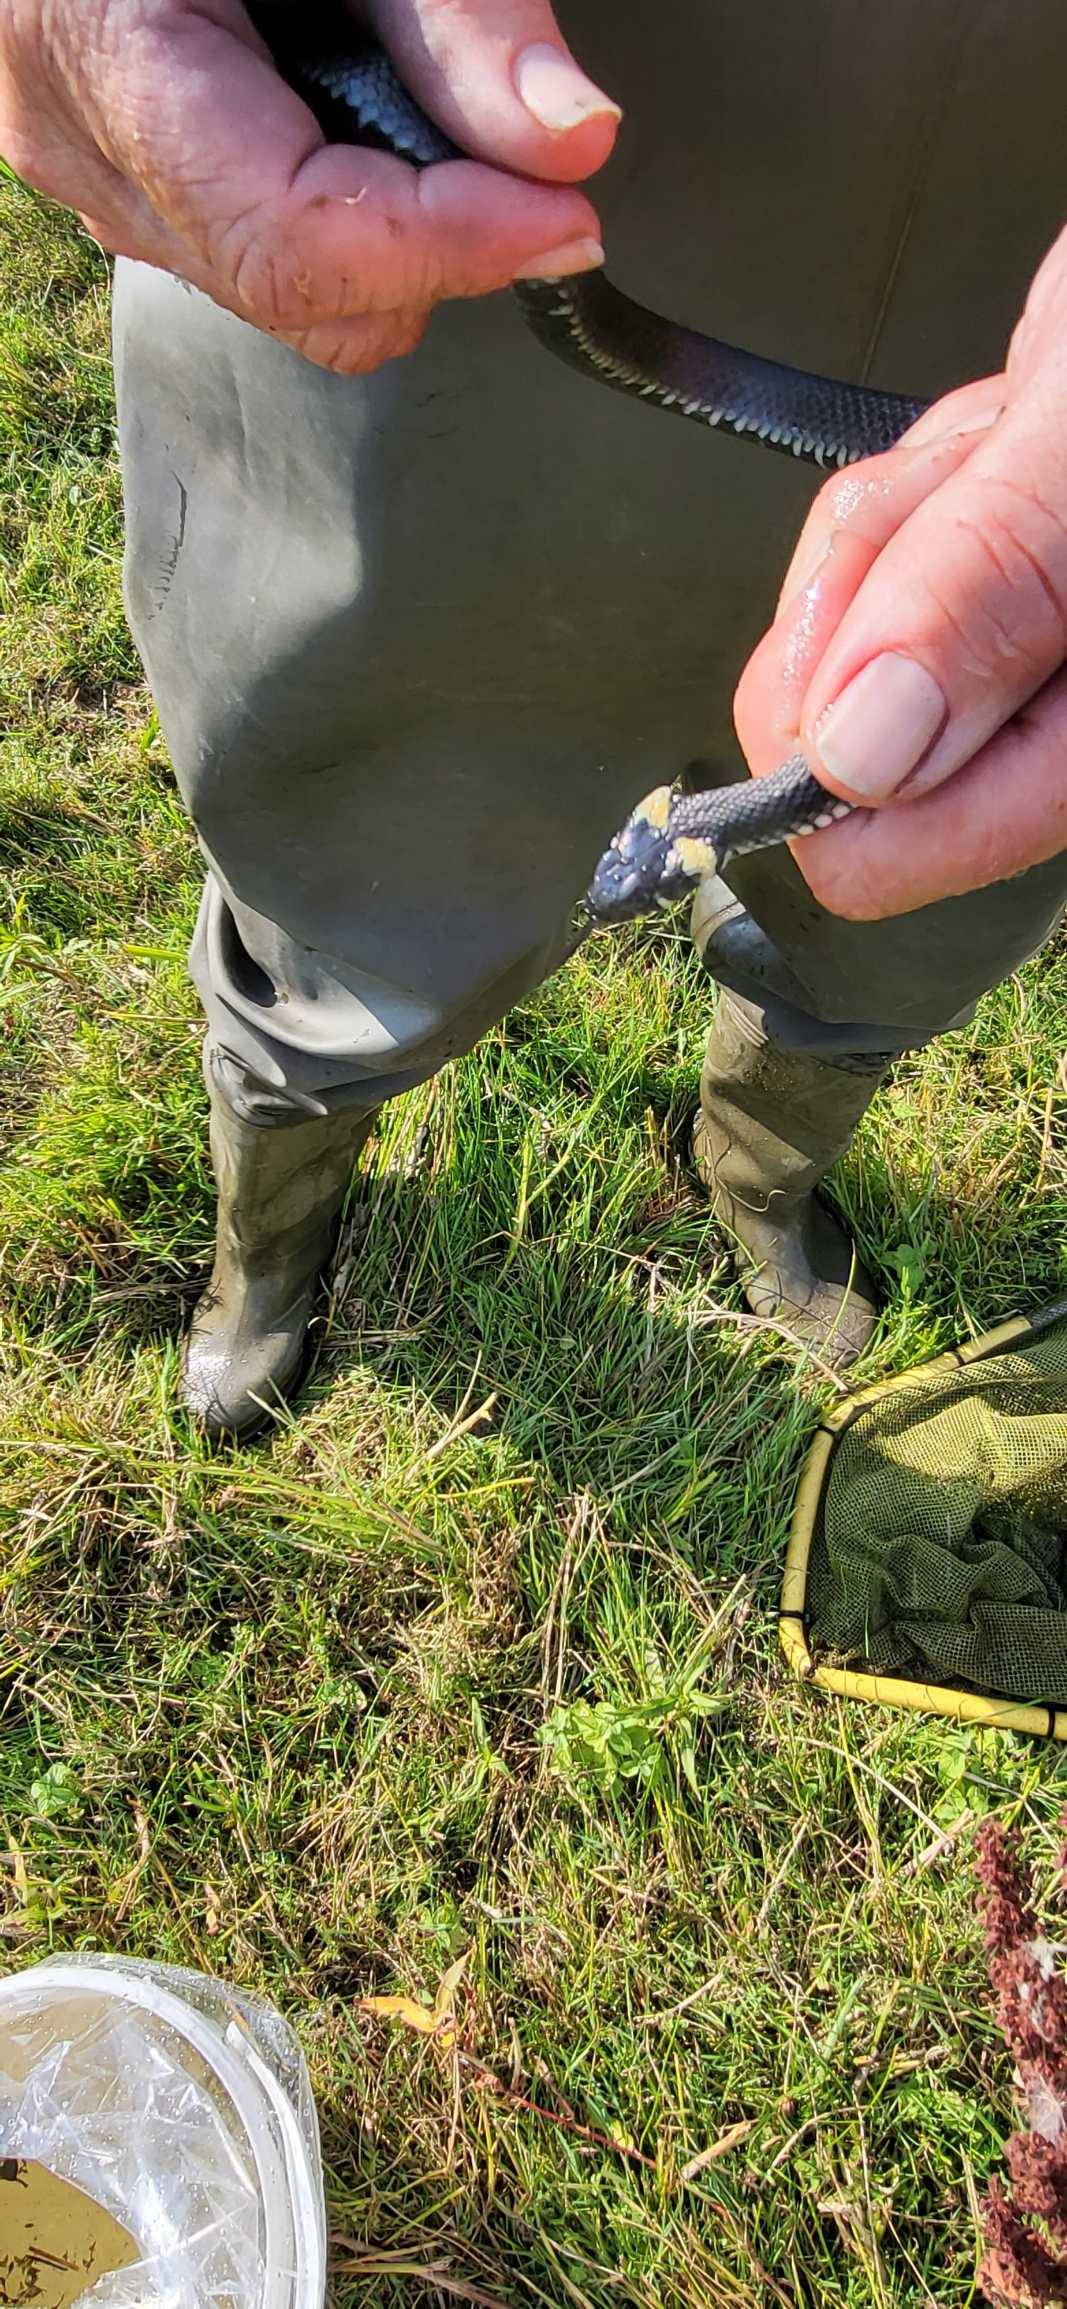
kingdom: Animalia
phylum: Chordata
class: Squamata
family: Colubridae
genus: Natrix
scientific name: Natrix natrix
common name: Snog
